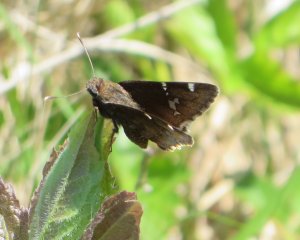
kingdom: Animalia
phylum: Arthropoda
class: Insecta
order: Lepidoptera
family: Hesperiidae
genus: Autochton
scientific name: Autochton
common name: Southern Cloudywing
